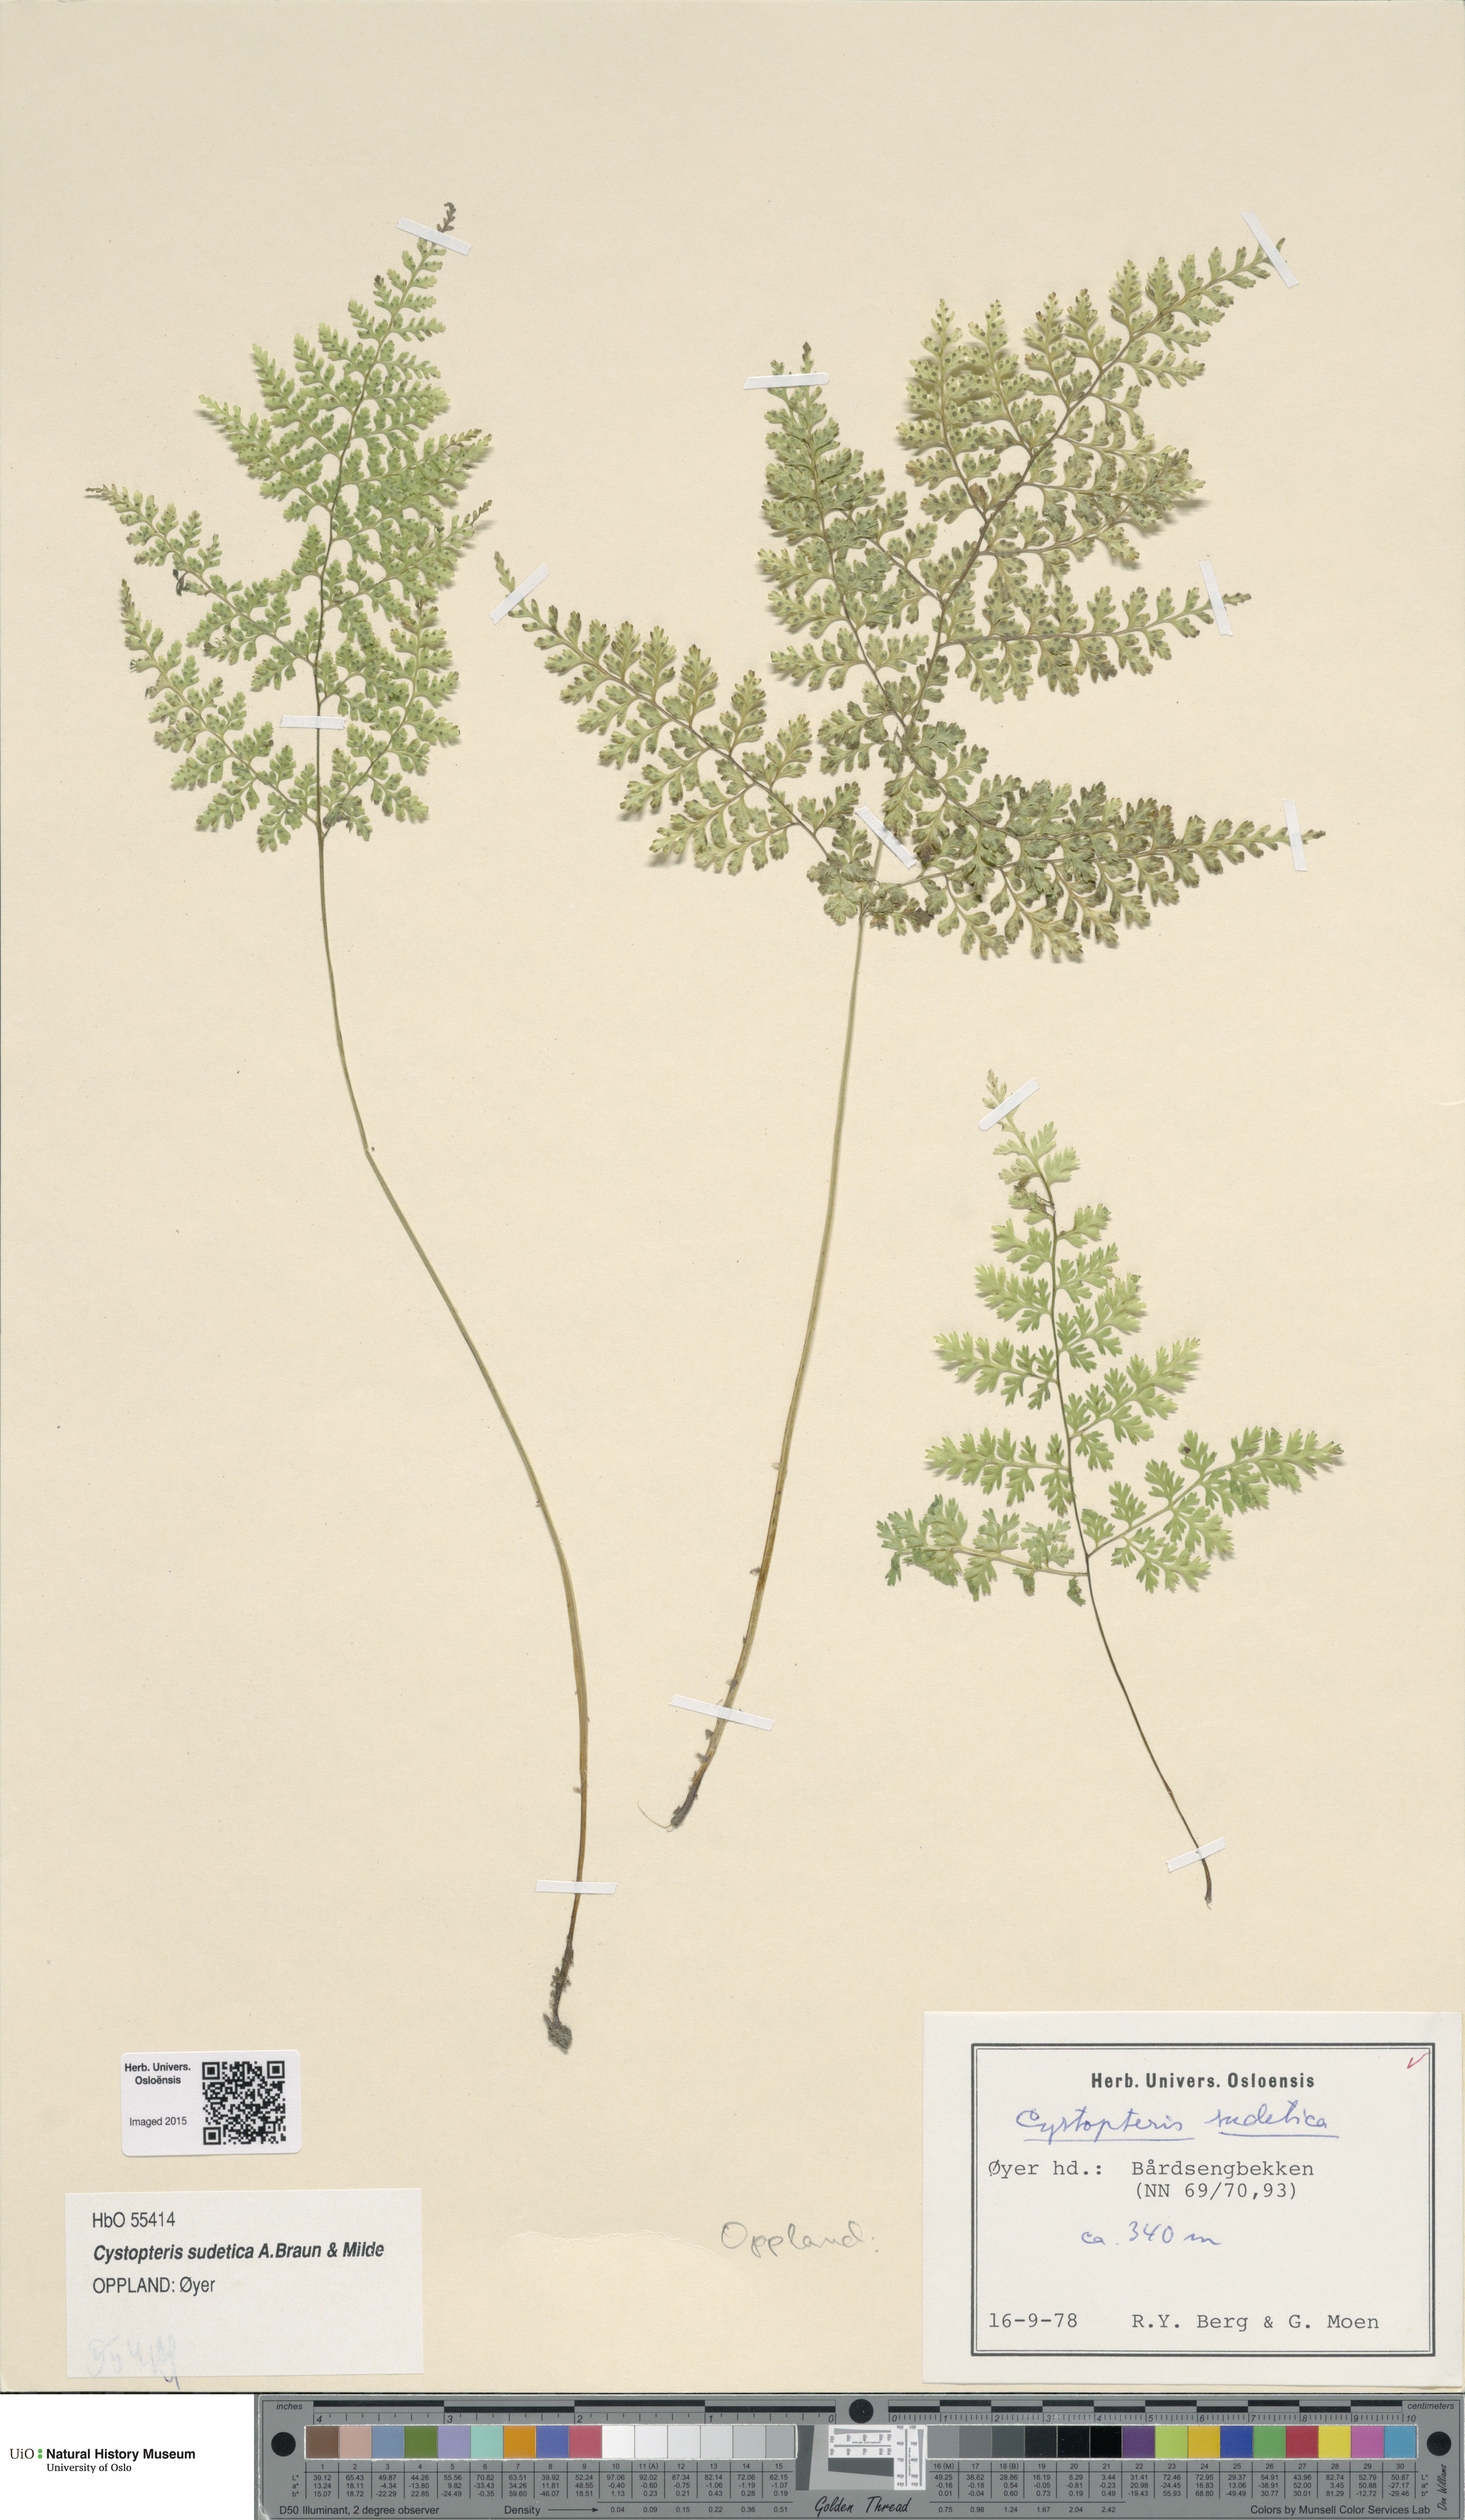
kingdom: Plantae
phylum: Tracheophyta
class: Polypodiopsida
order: Polypodiales
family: Cystopteridaceae
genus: Cystopteris
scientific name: Cystopteris sudetica
